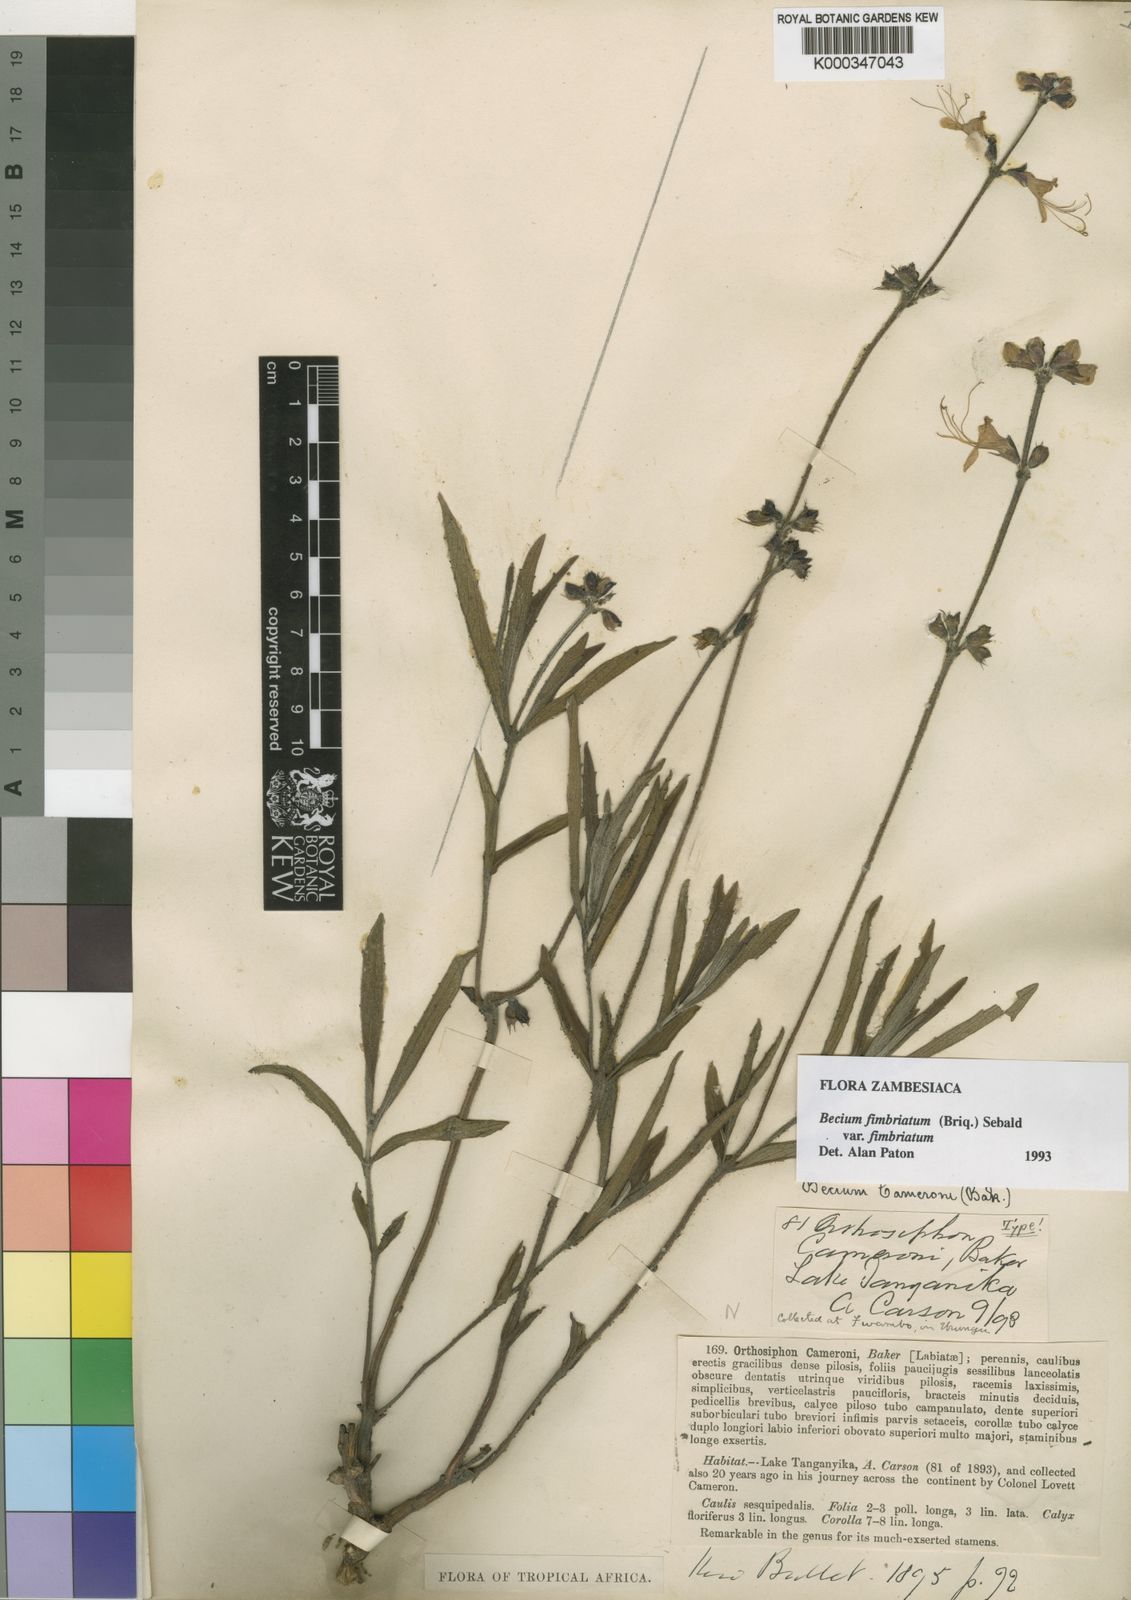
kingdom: Plantae
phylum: Tracheophyta
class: Magnoliopsida
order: Lamiales
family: Lamiaceae
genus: Ocimum
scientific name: Ocimum fimbriatum
